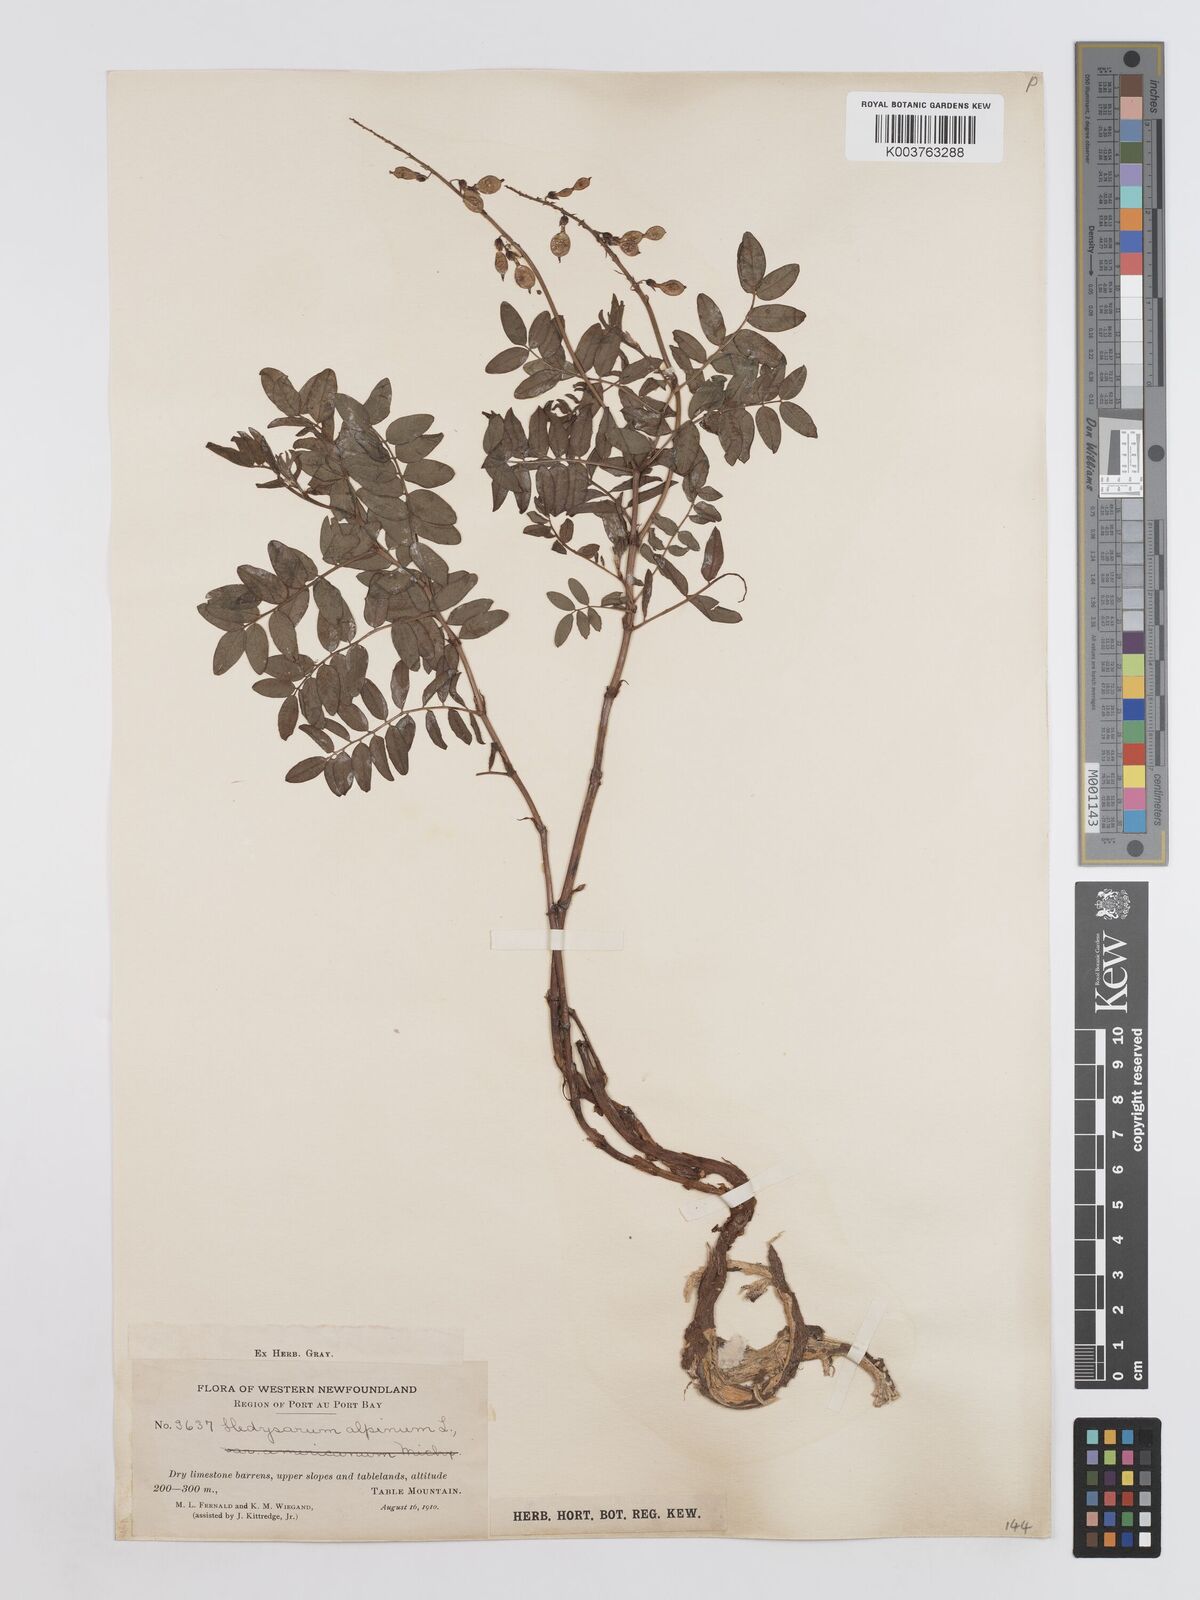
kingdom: Plantae
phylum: Tracheophyta
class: Magnoliopsida
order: Fabales
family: Fabaceae
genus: Hedysarum
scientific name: Hedysarum alpinum
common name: Alpine sweet-vetch
